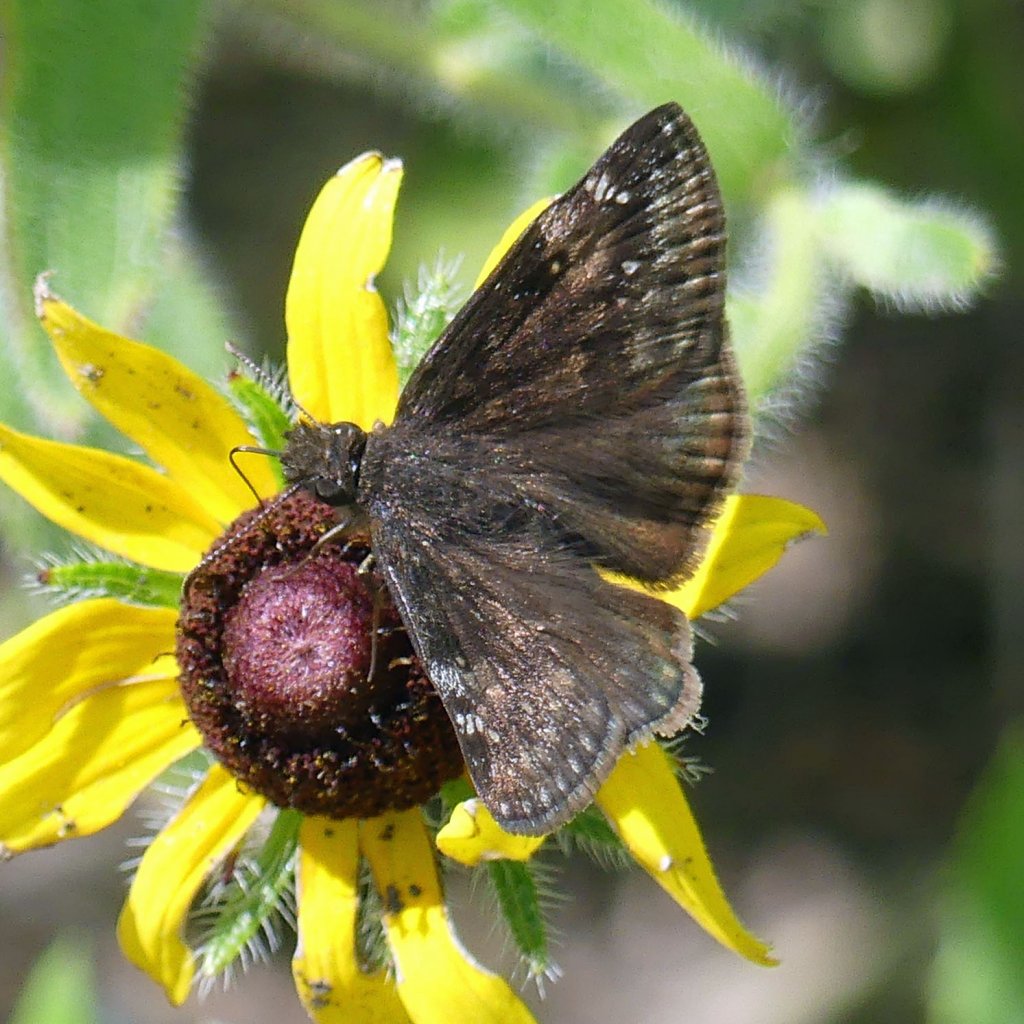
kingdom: Animalia
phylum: Arthropoda
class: Insecta
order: Lepidoptera
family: Hesperiidae
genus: Gesta
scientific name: Gesta
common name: Wild Indigo Duskywing
